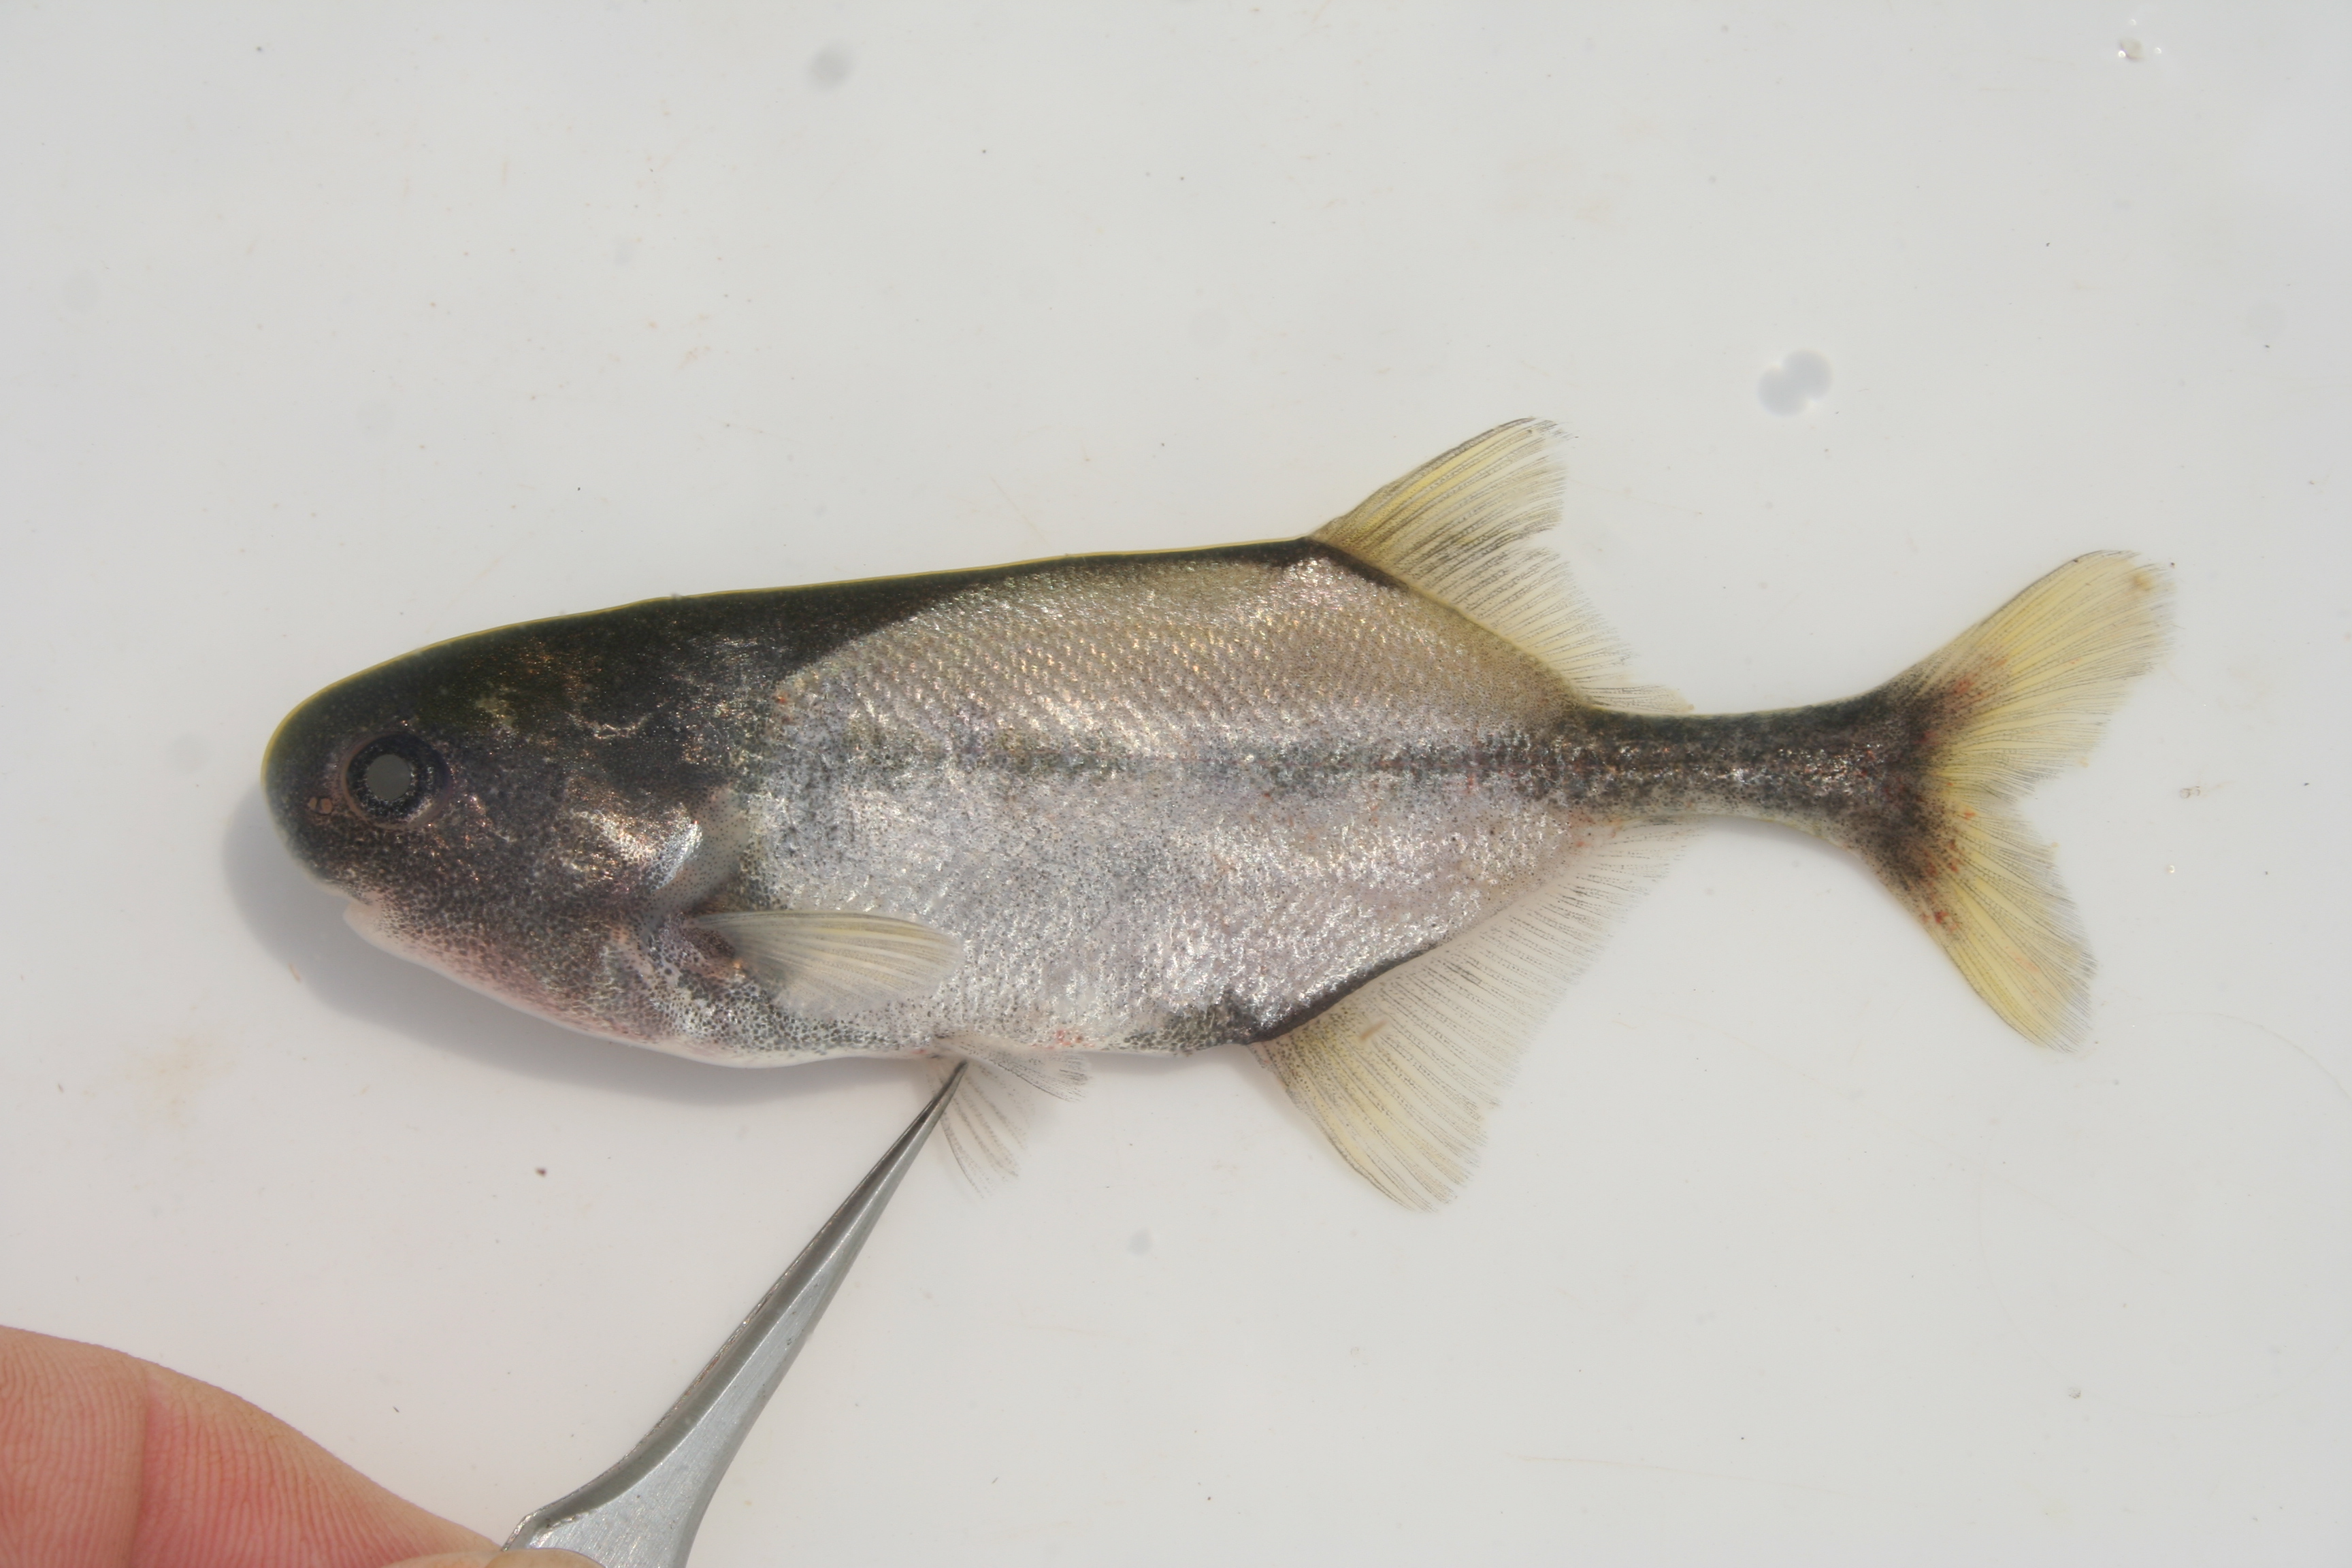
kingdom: Animalia
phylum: Chordata
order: Osteoglossiformes
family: Mormyridae
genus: Petrocephalus
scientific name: Petrocephalus
